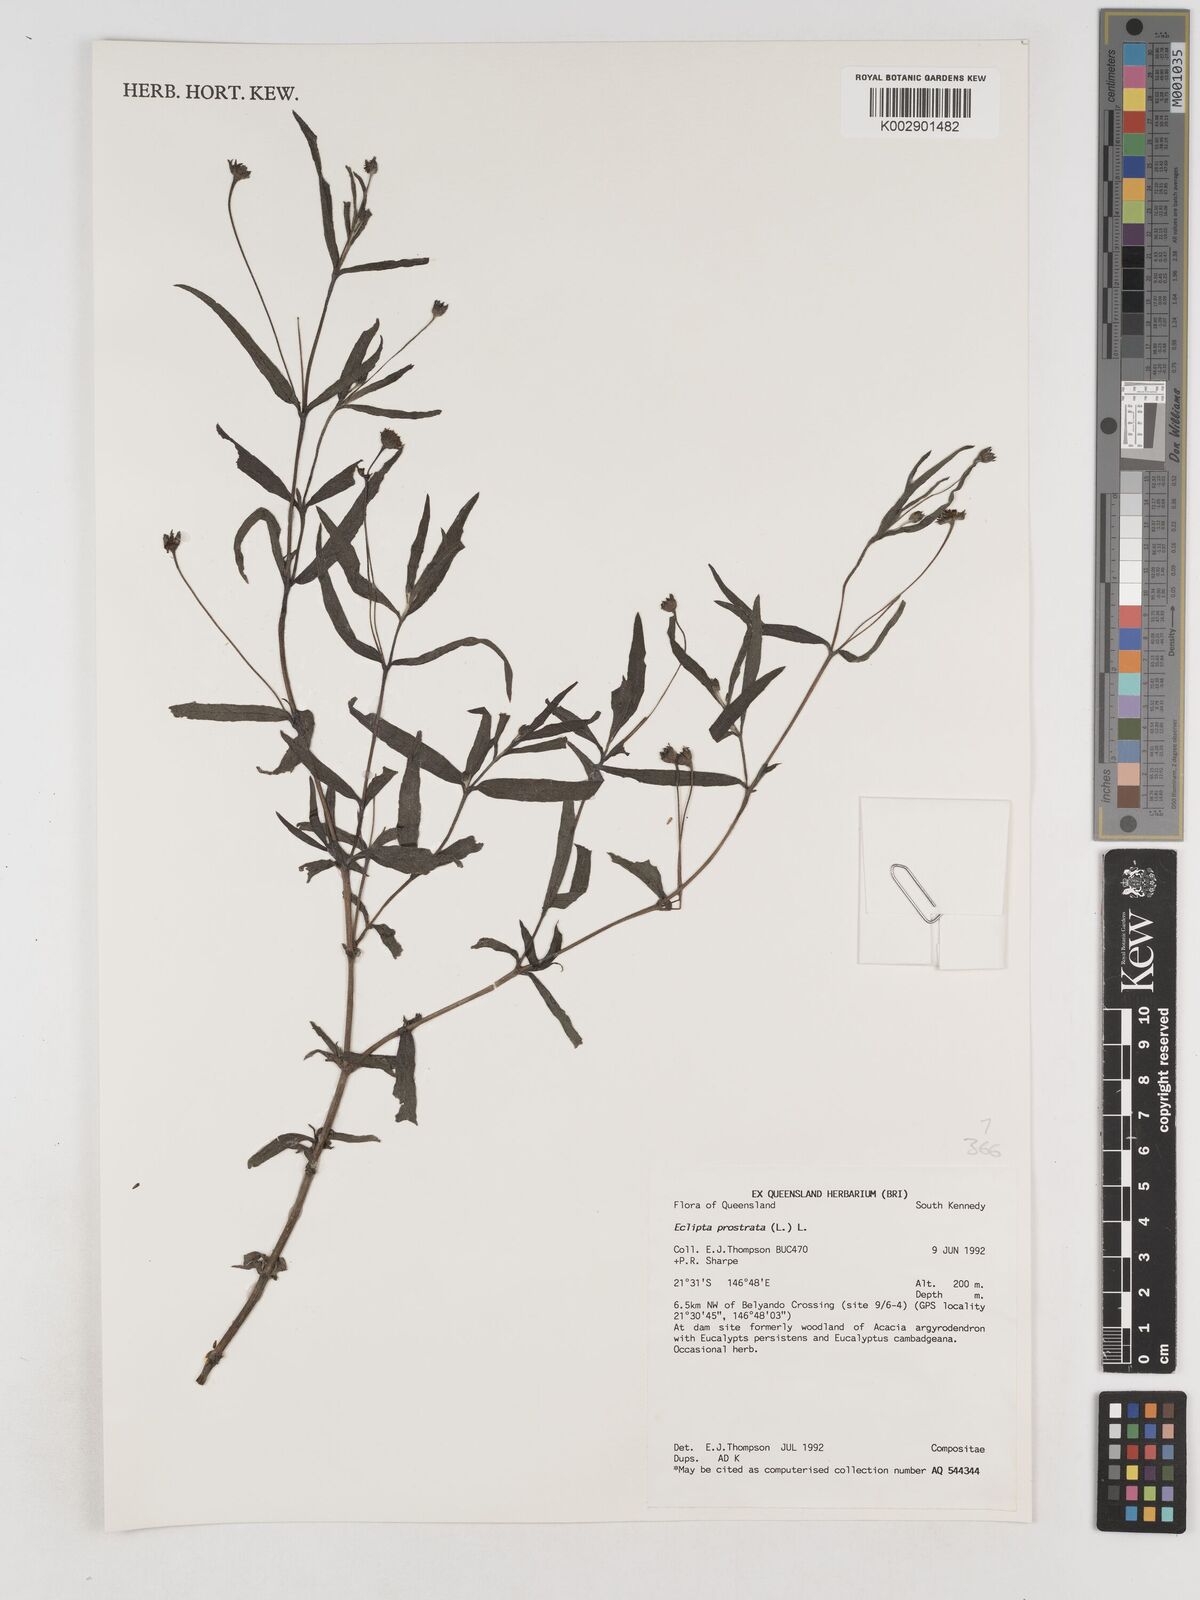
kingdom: Plantae
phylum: Tracheophyta
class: Magnoliopsida
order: Asterales
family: Asteraceae
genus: Eclipta
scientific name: Eclipta prostrata
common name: False daisy
